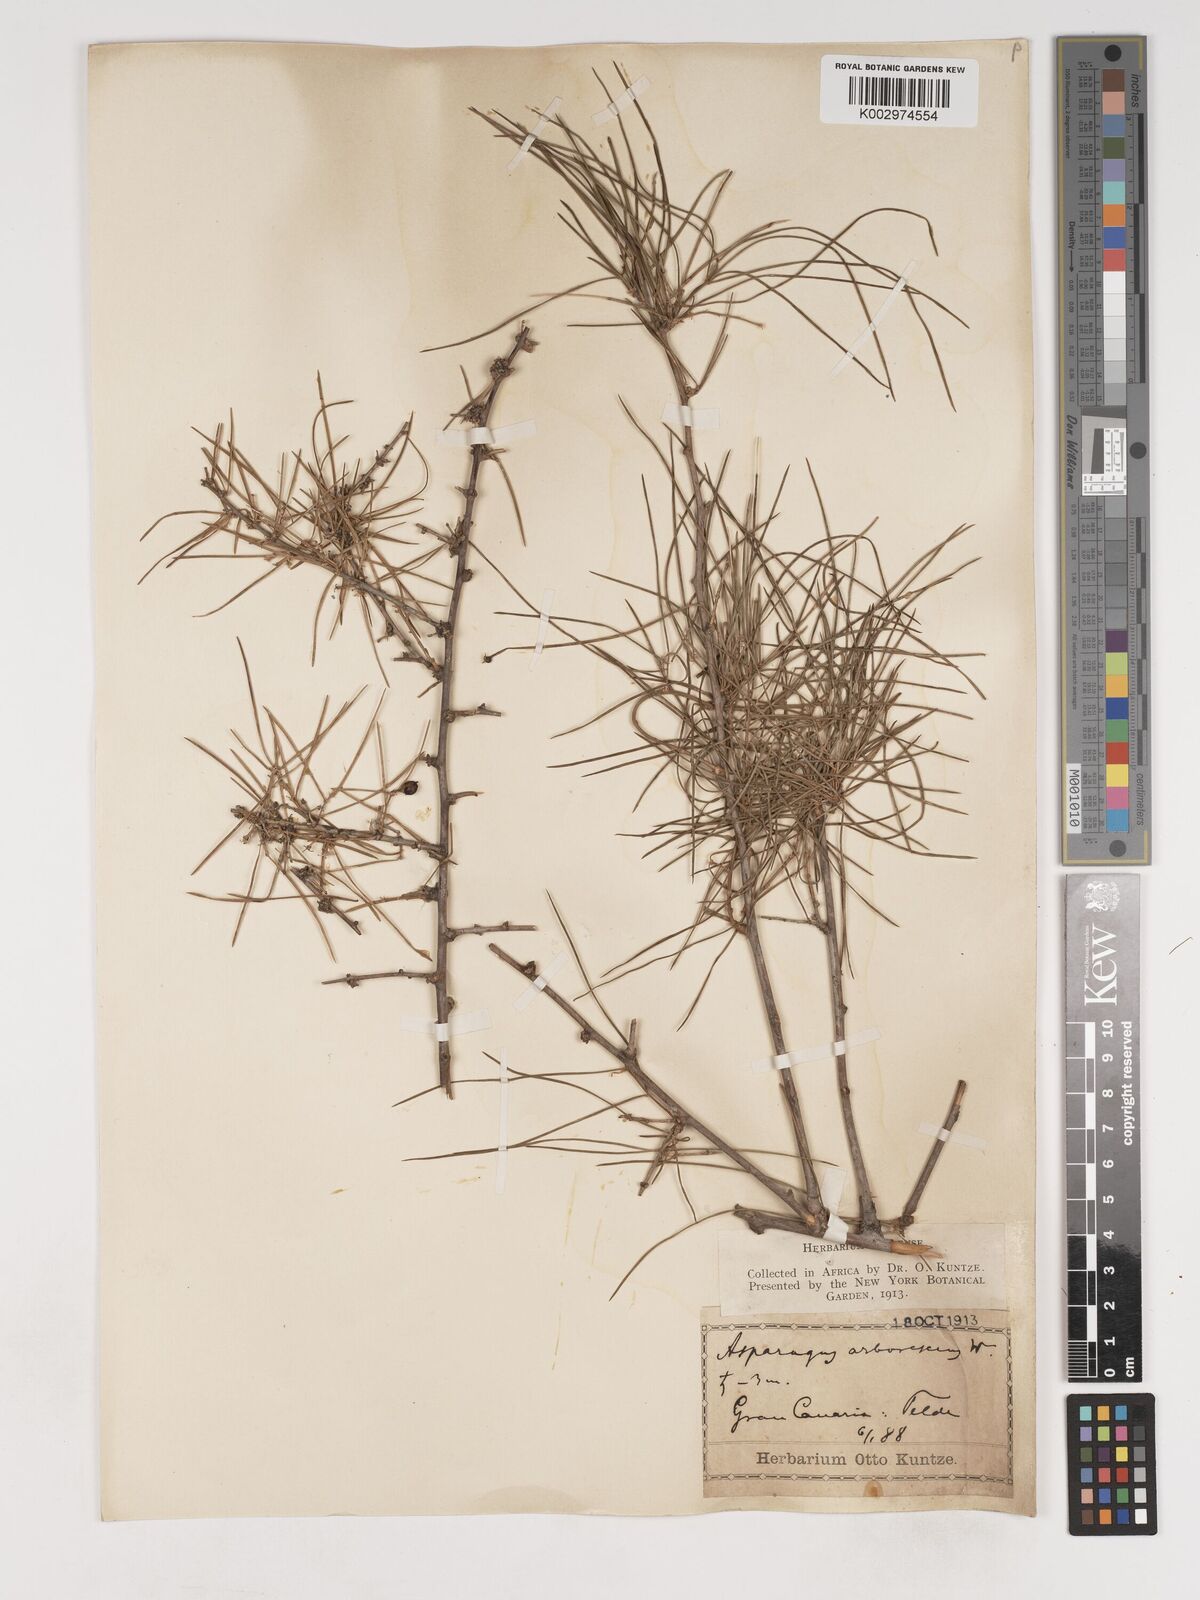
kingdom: Plantae
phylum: Tracheophyta
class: Liliopsida
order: Asparagales
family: Asparagaceae
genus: Asparagus
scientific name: Asparagus arborescens
